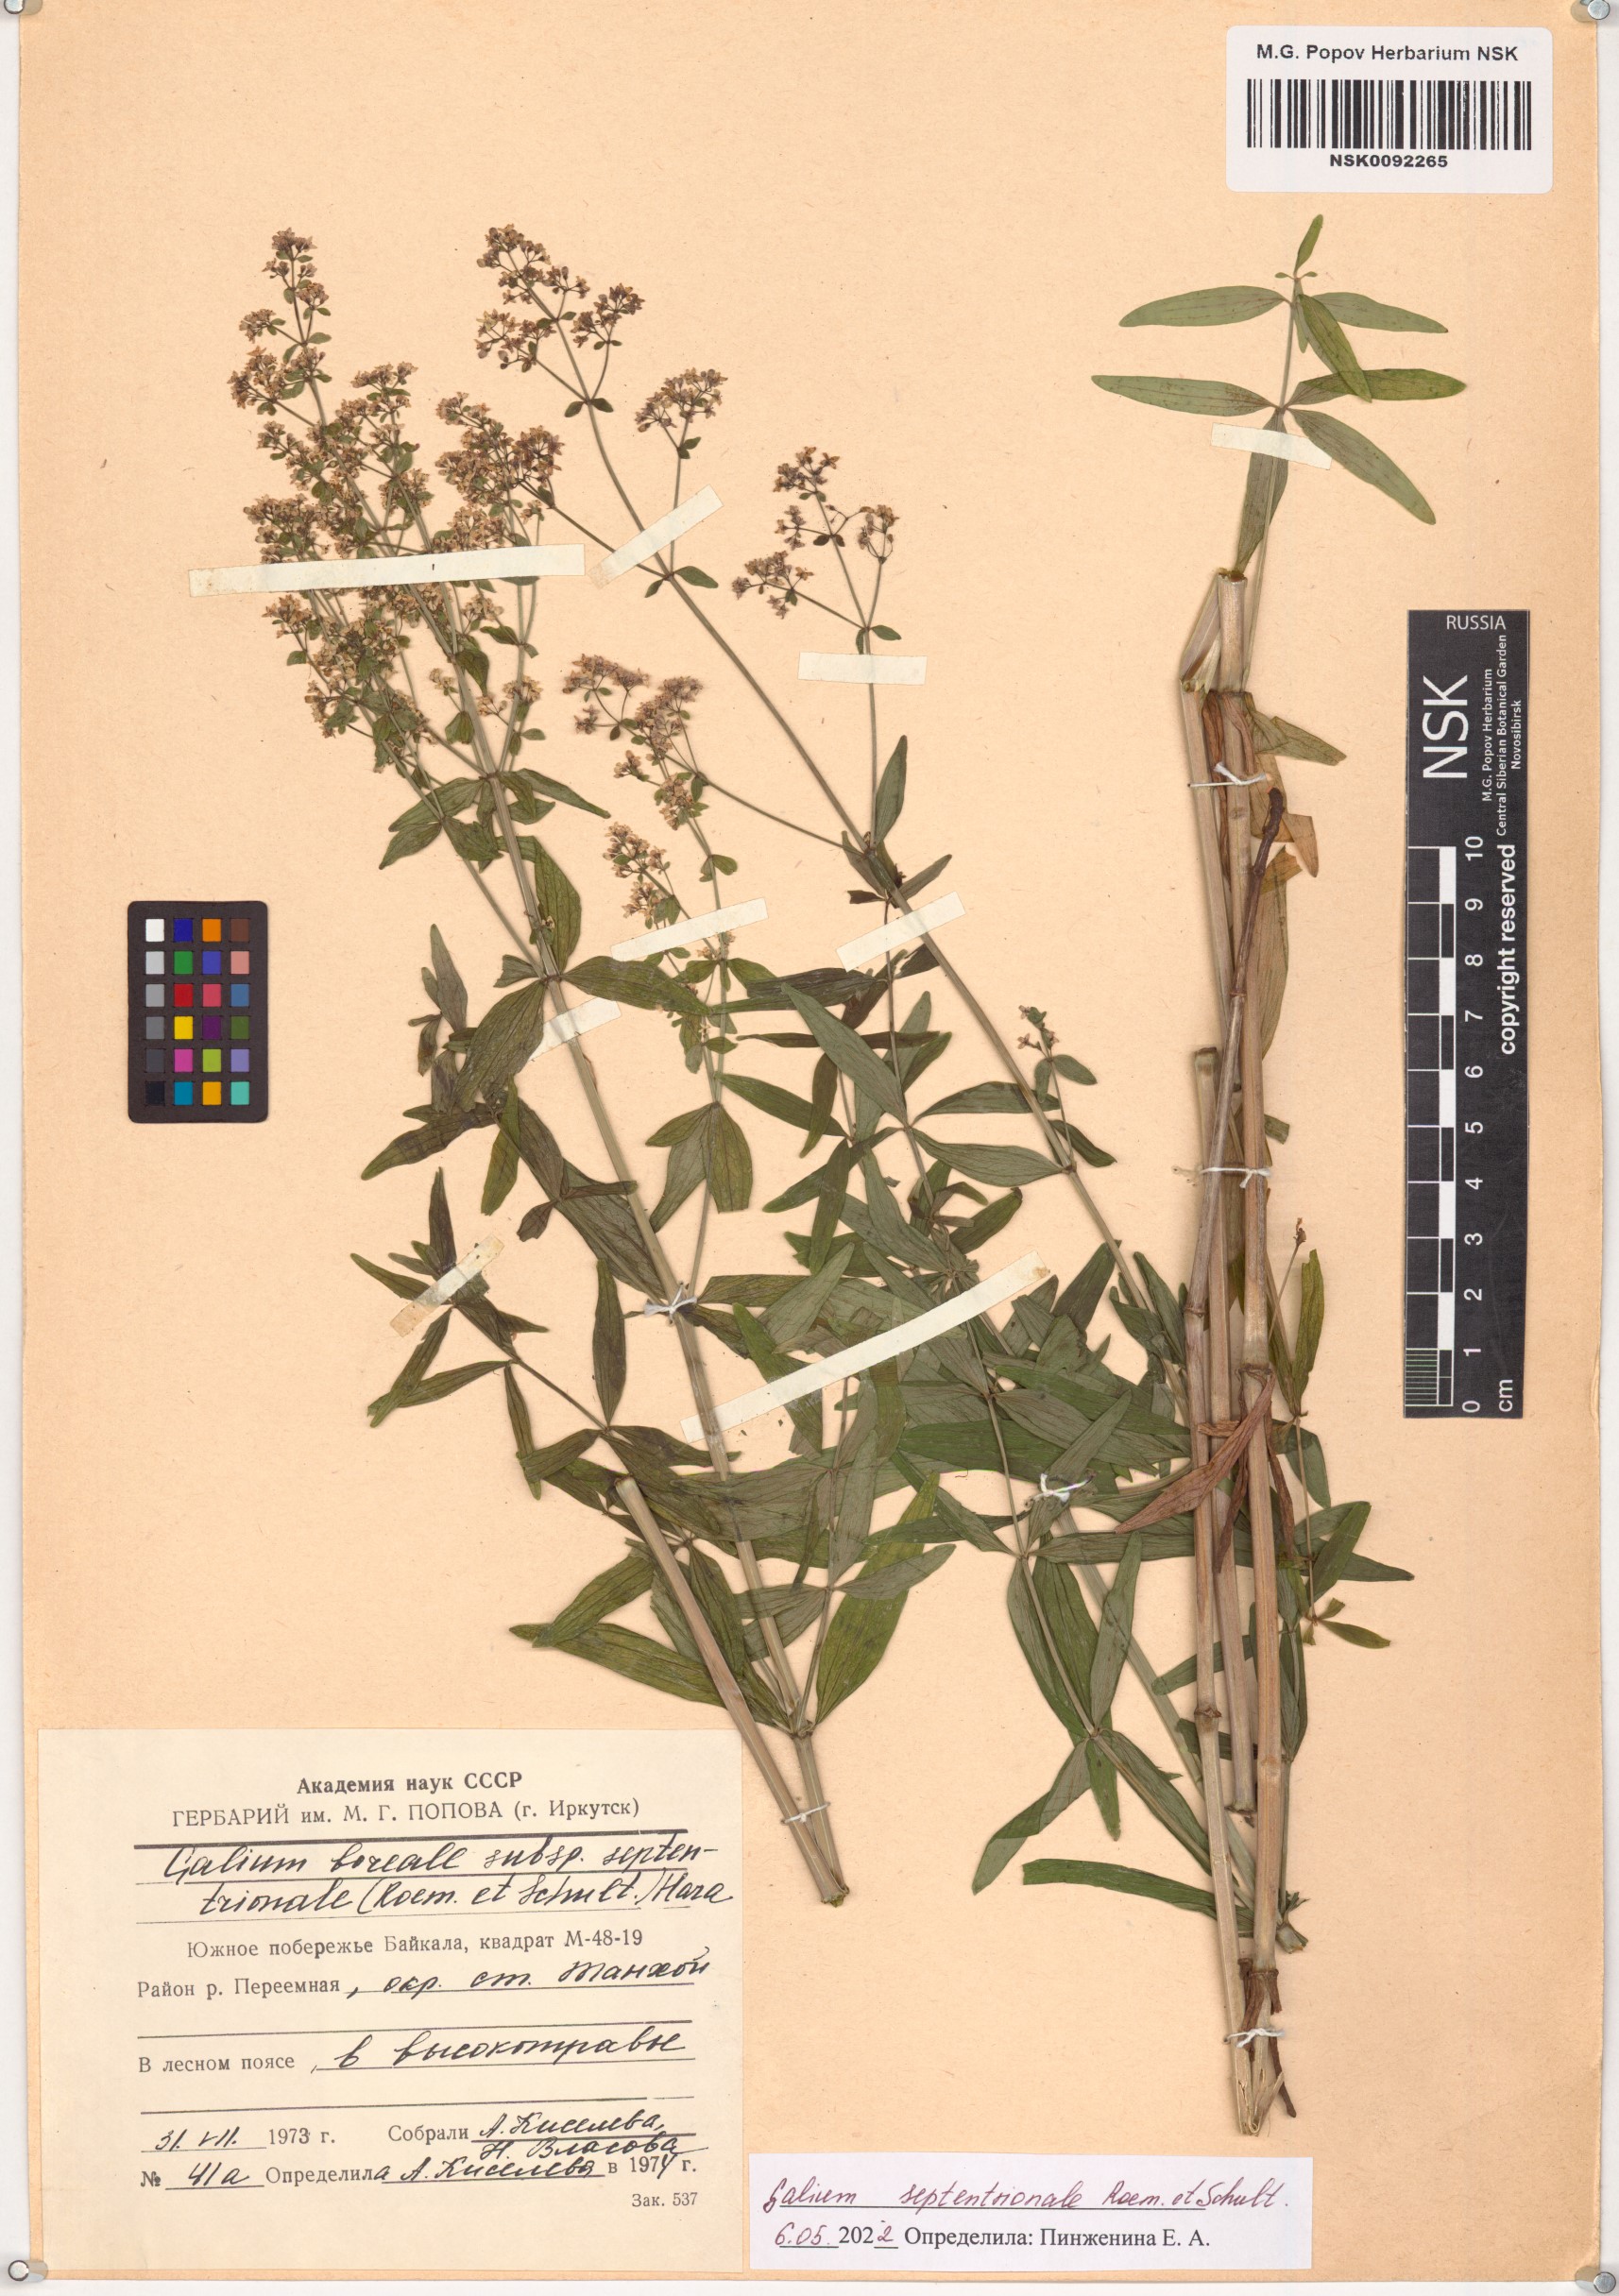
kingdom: Plantae
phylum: Tracheophyta
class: Magnoliopsida
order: Gentianales
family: Rubiaceae
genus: Galium
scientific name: Galium boreale
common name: Northern bedstraw
